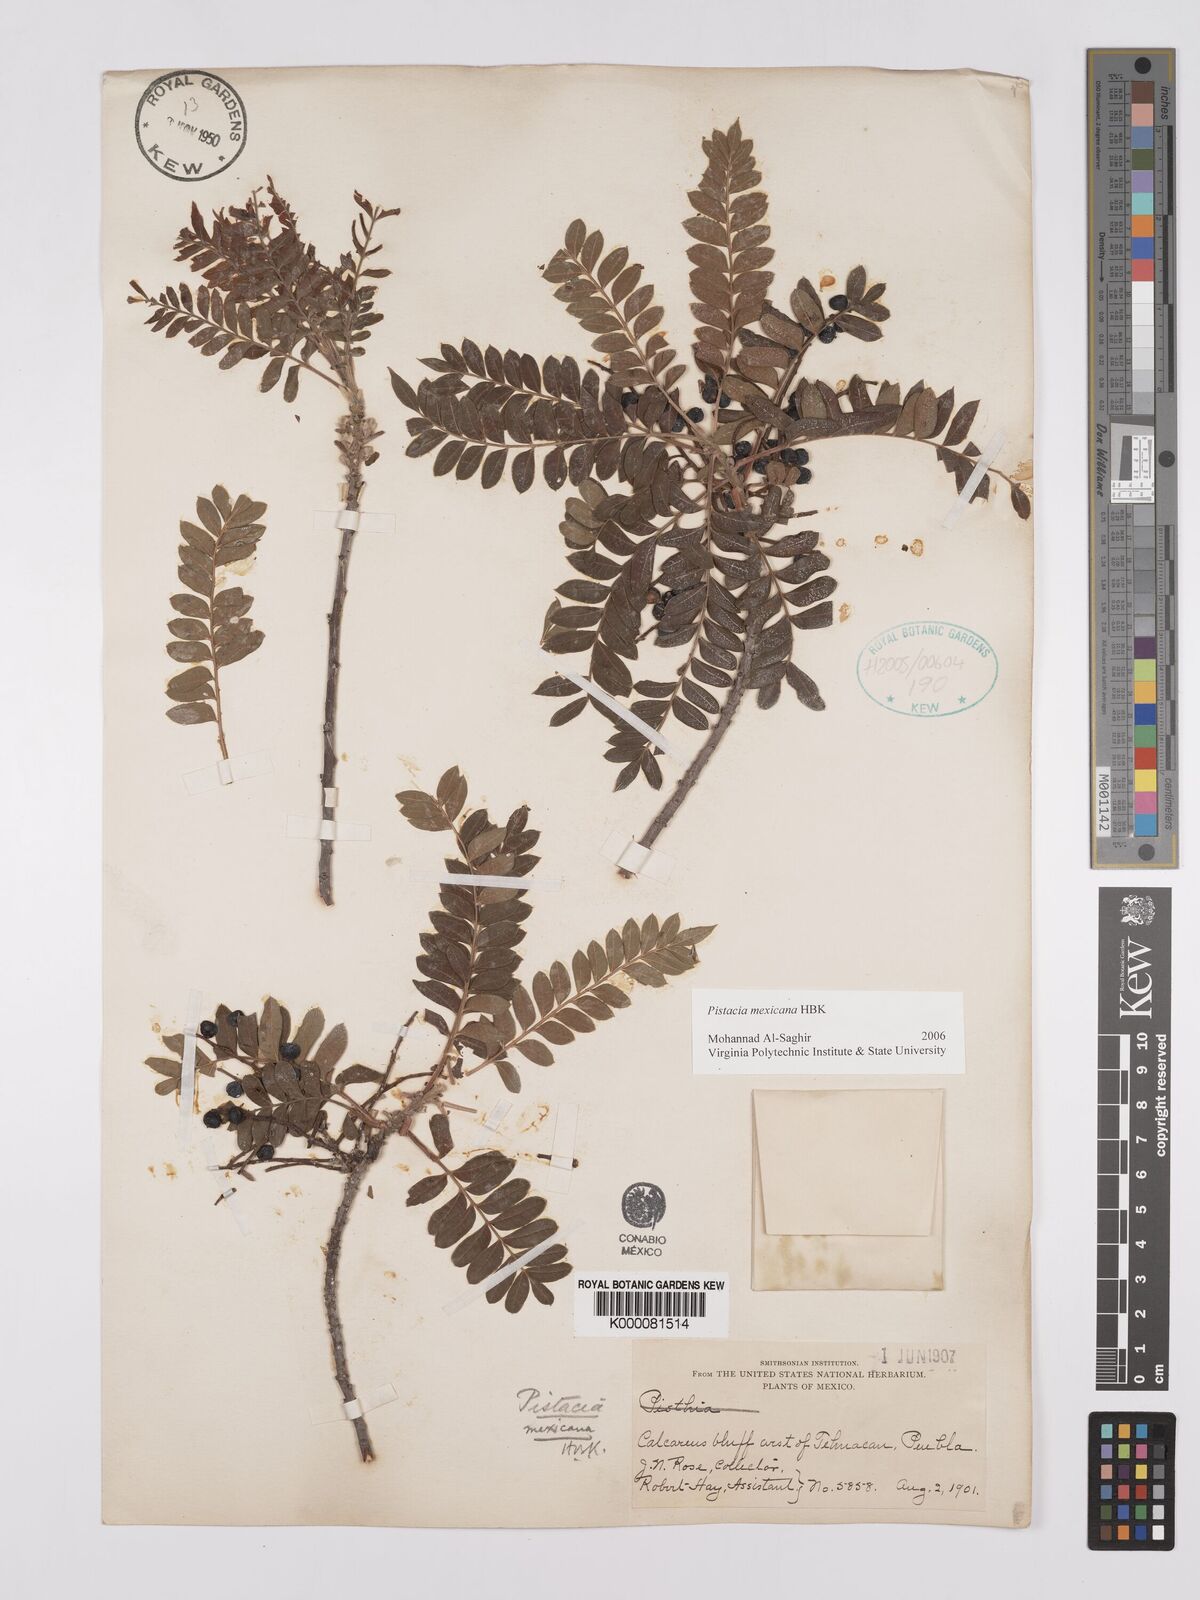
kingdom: Plantae
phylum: Tracheophyta
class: Magnoliopsida
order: Sapindales
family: Anacardiaceae
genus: Pistacia
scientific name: Pistacia mexicana
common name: Mexican pistachio
